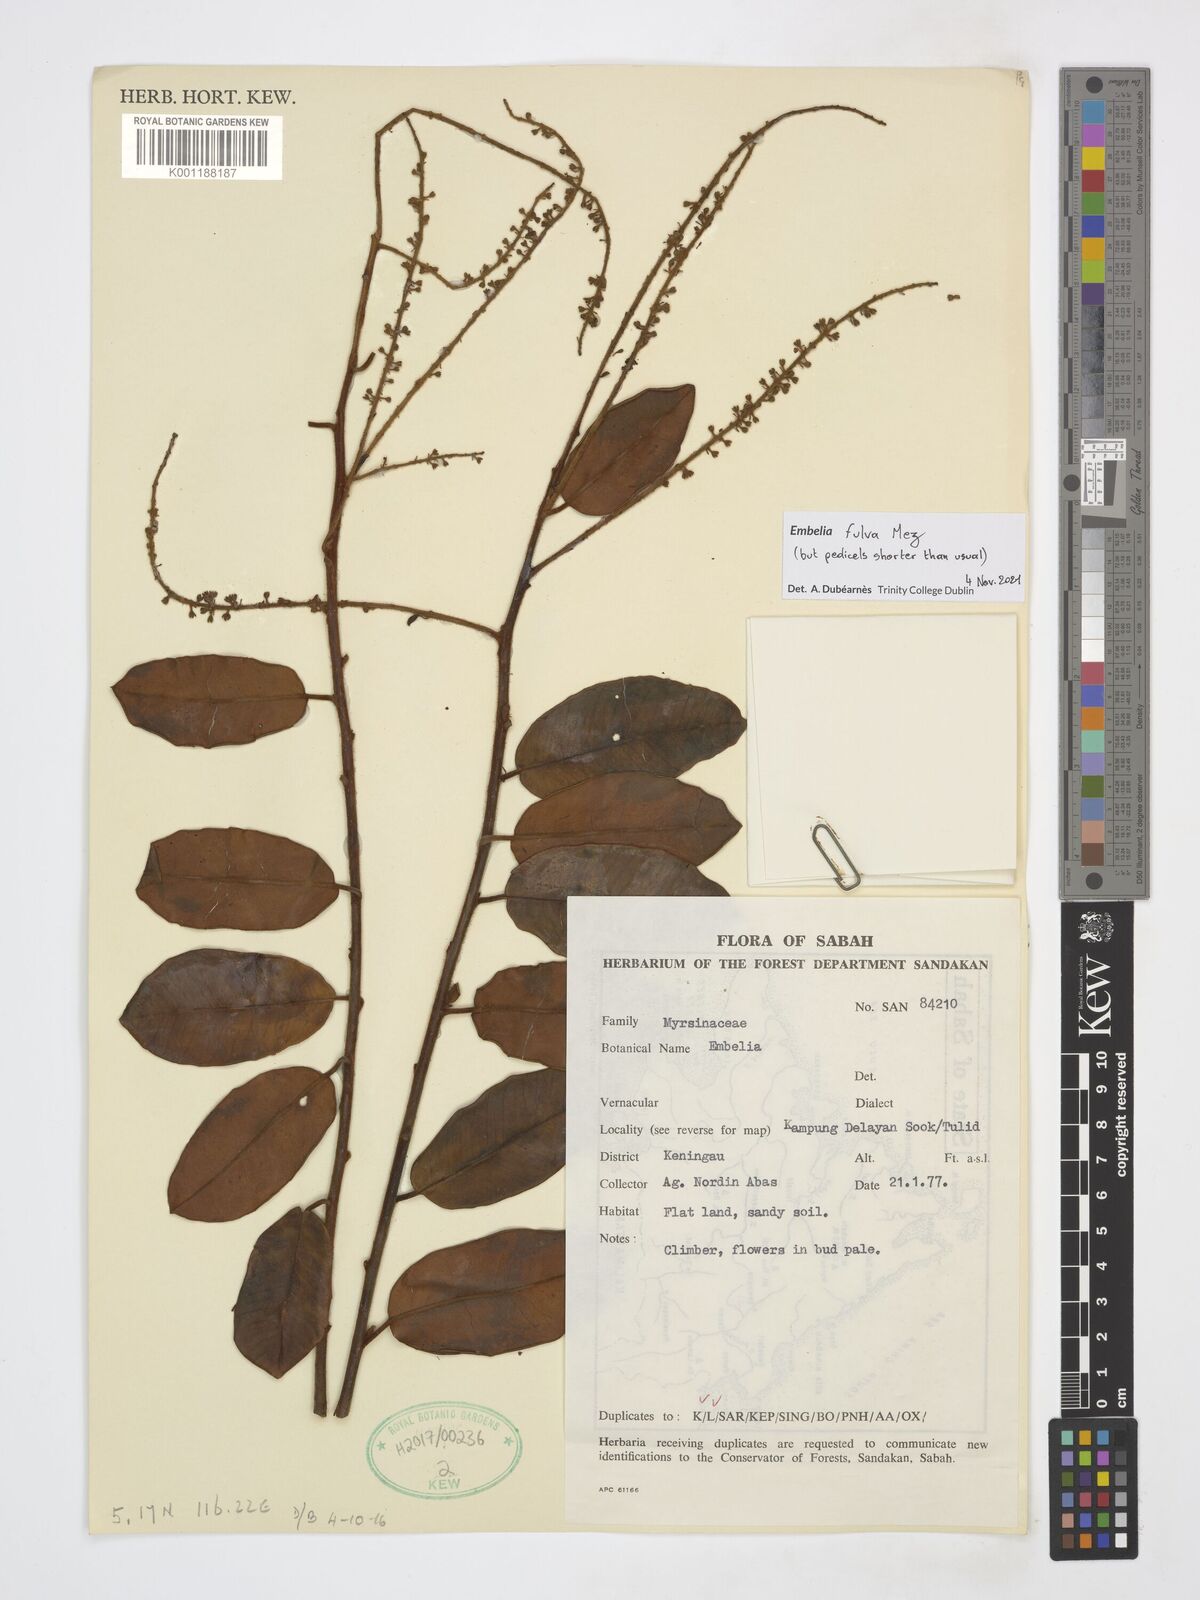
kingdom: Plantae
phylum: Tracheophyta
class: Magnoliopsida
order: Ericales
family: Primulaceae
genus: Grenacheria
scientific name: Grenacheria fulva
